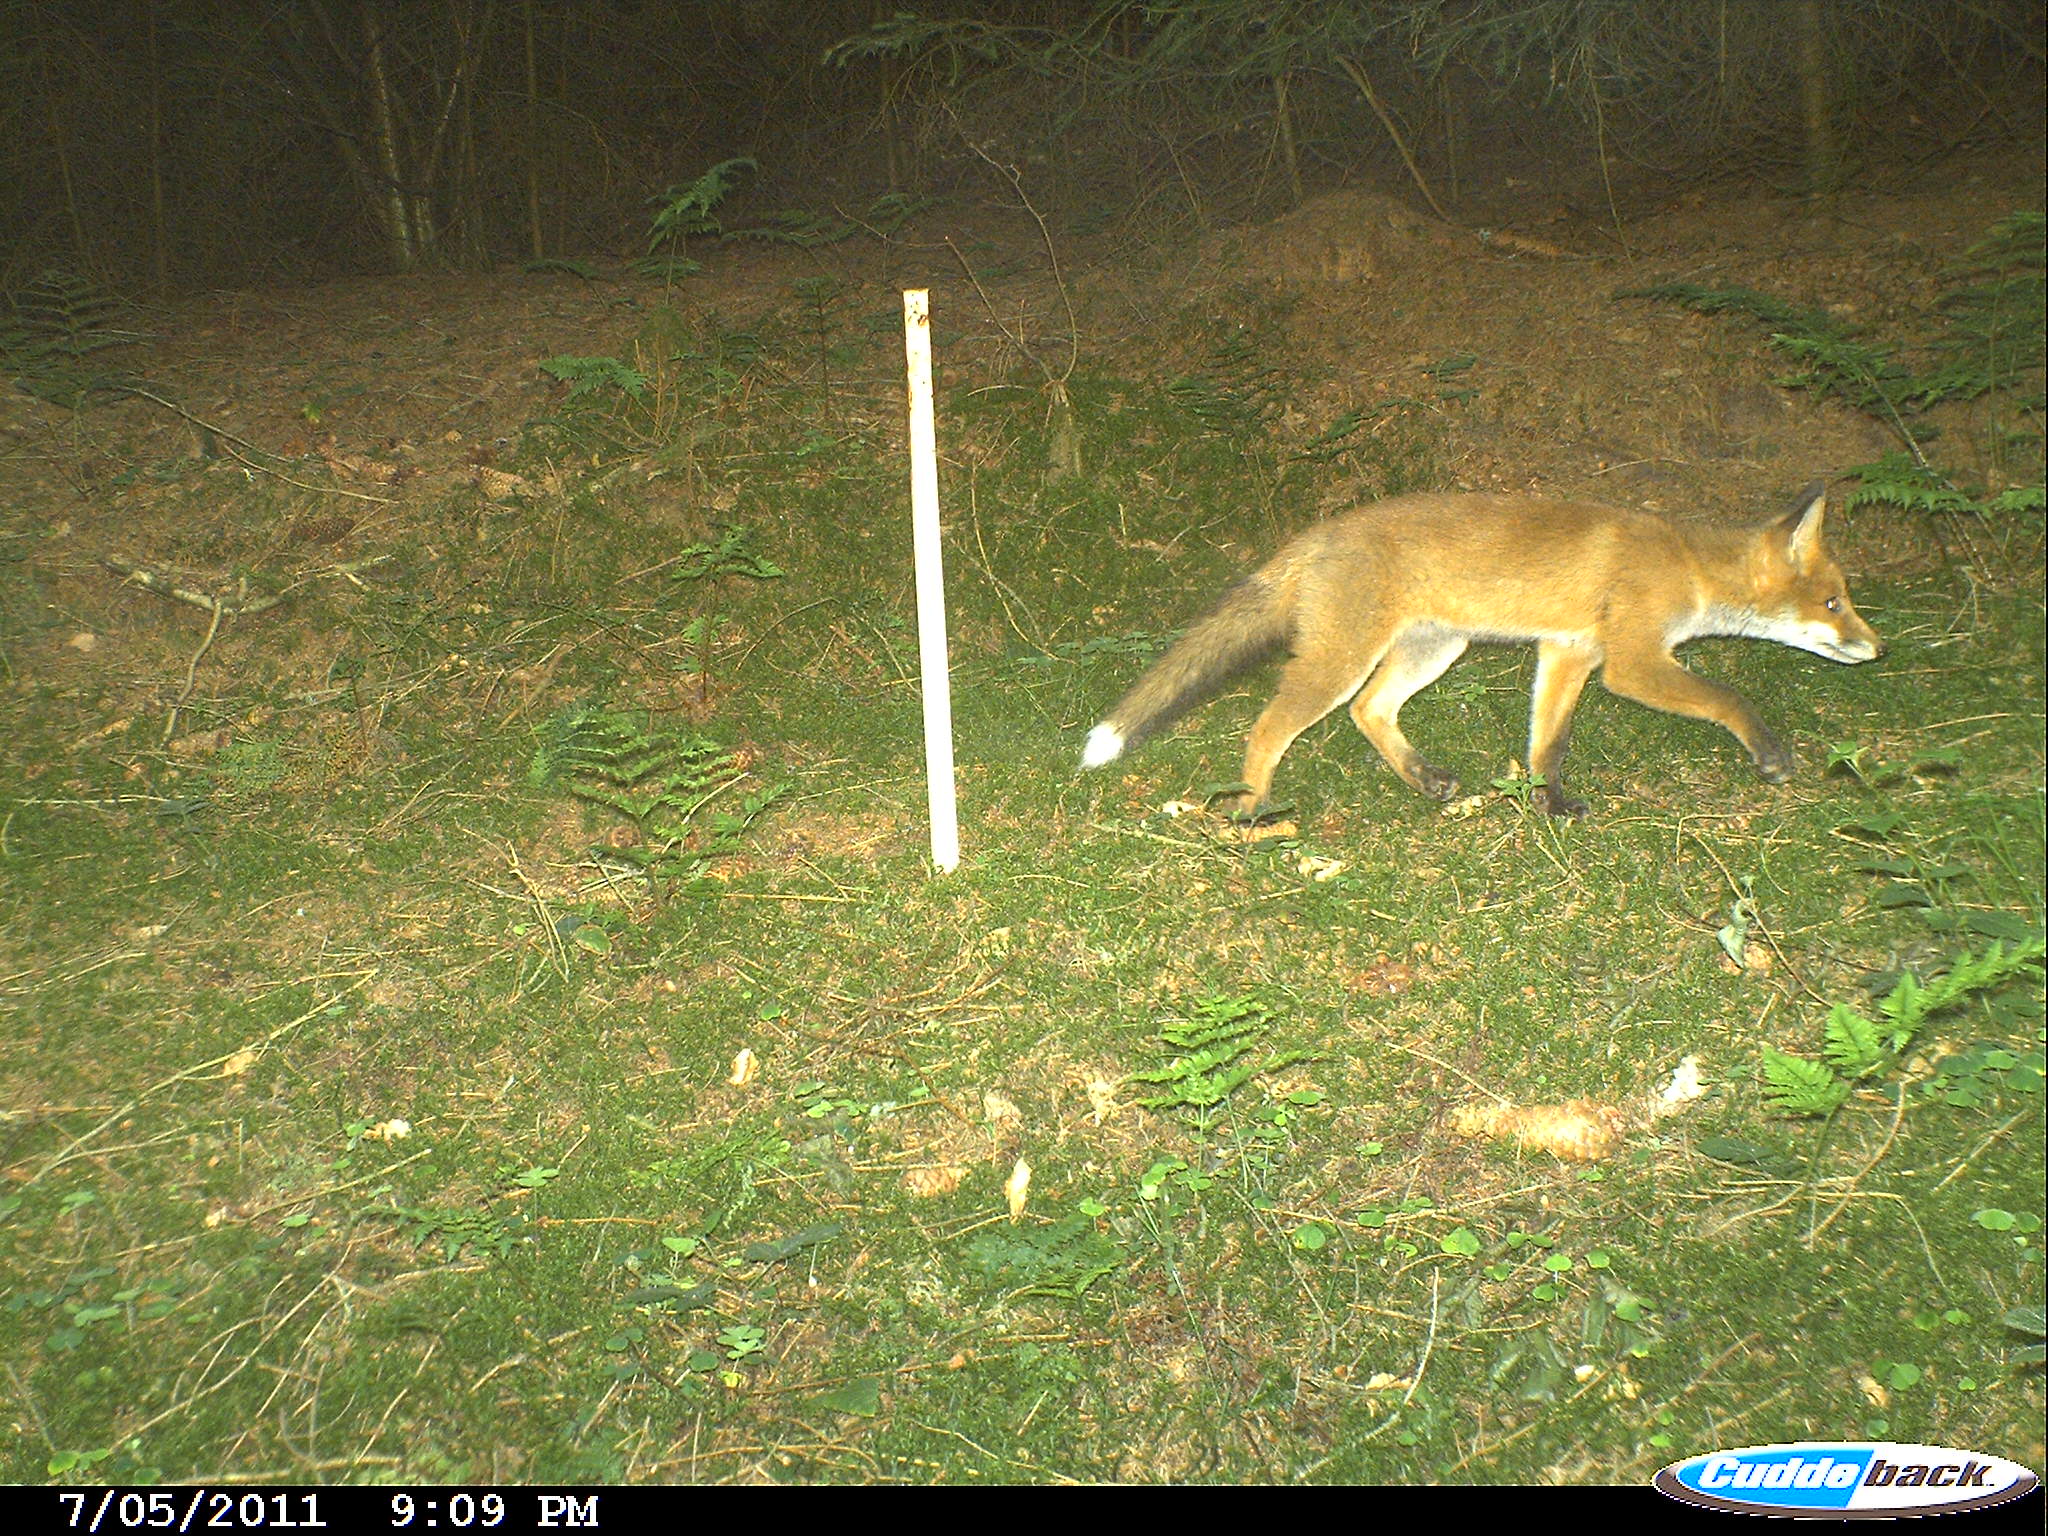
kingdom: Animalia
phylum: Chordata
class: Mammalia
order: Carnivora
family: Canidae
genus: Vulpes
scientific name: Vulpes vulpes
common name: Red fox
